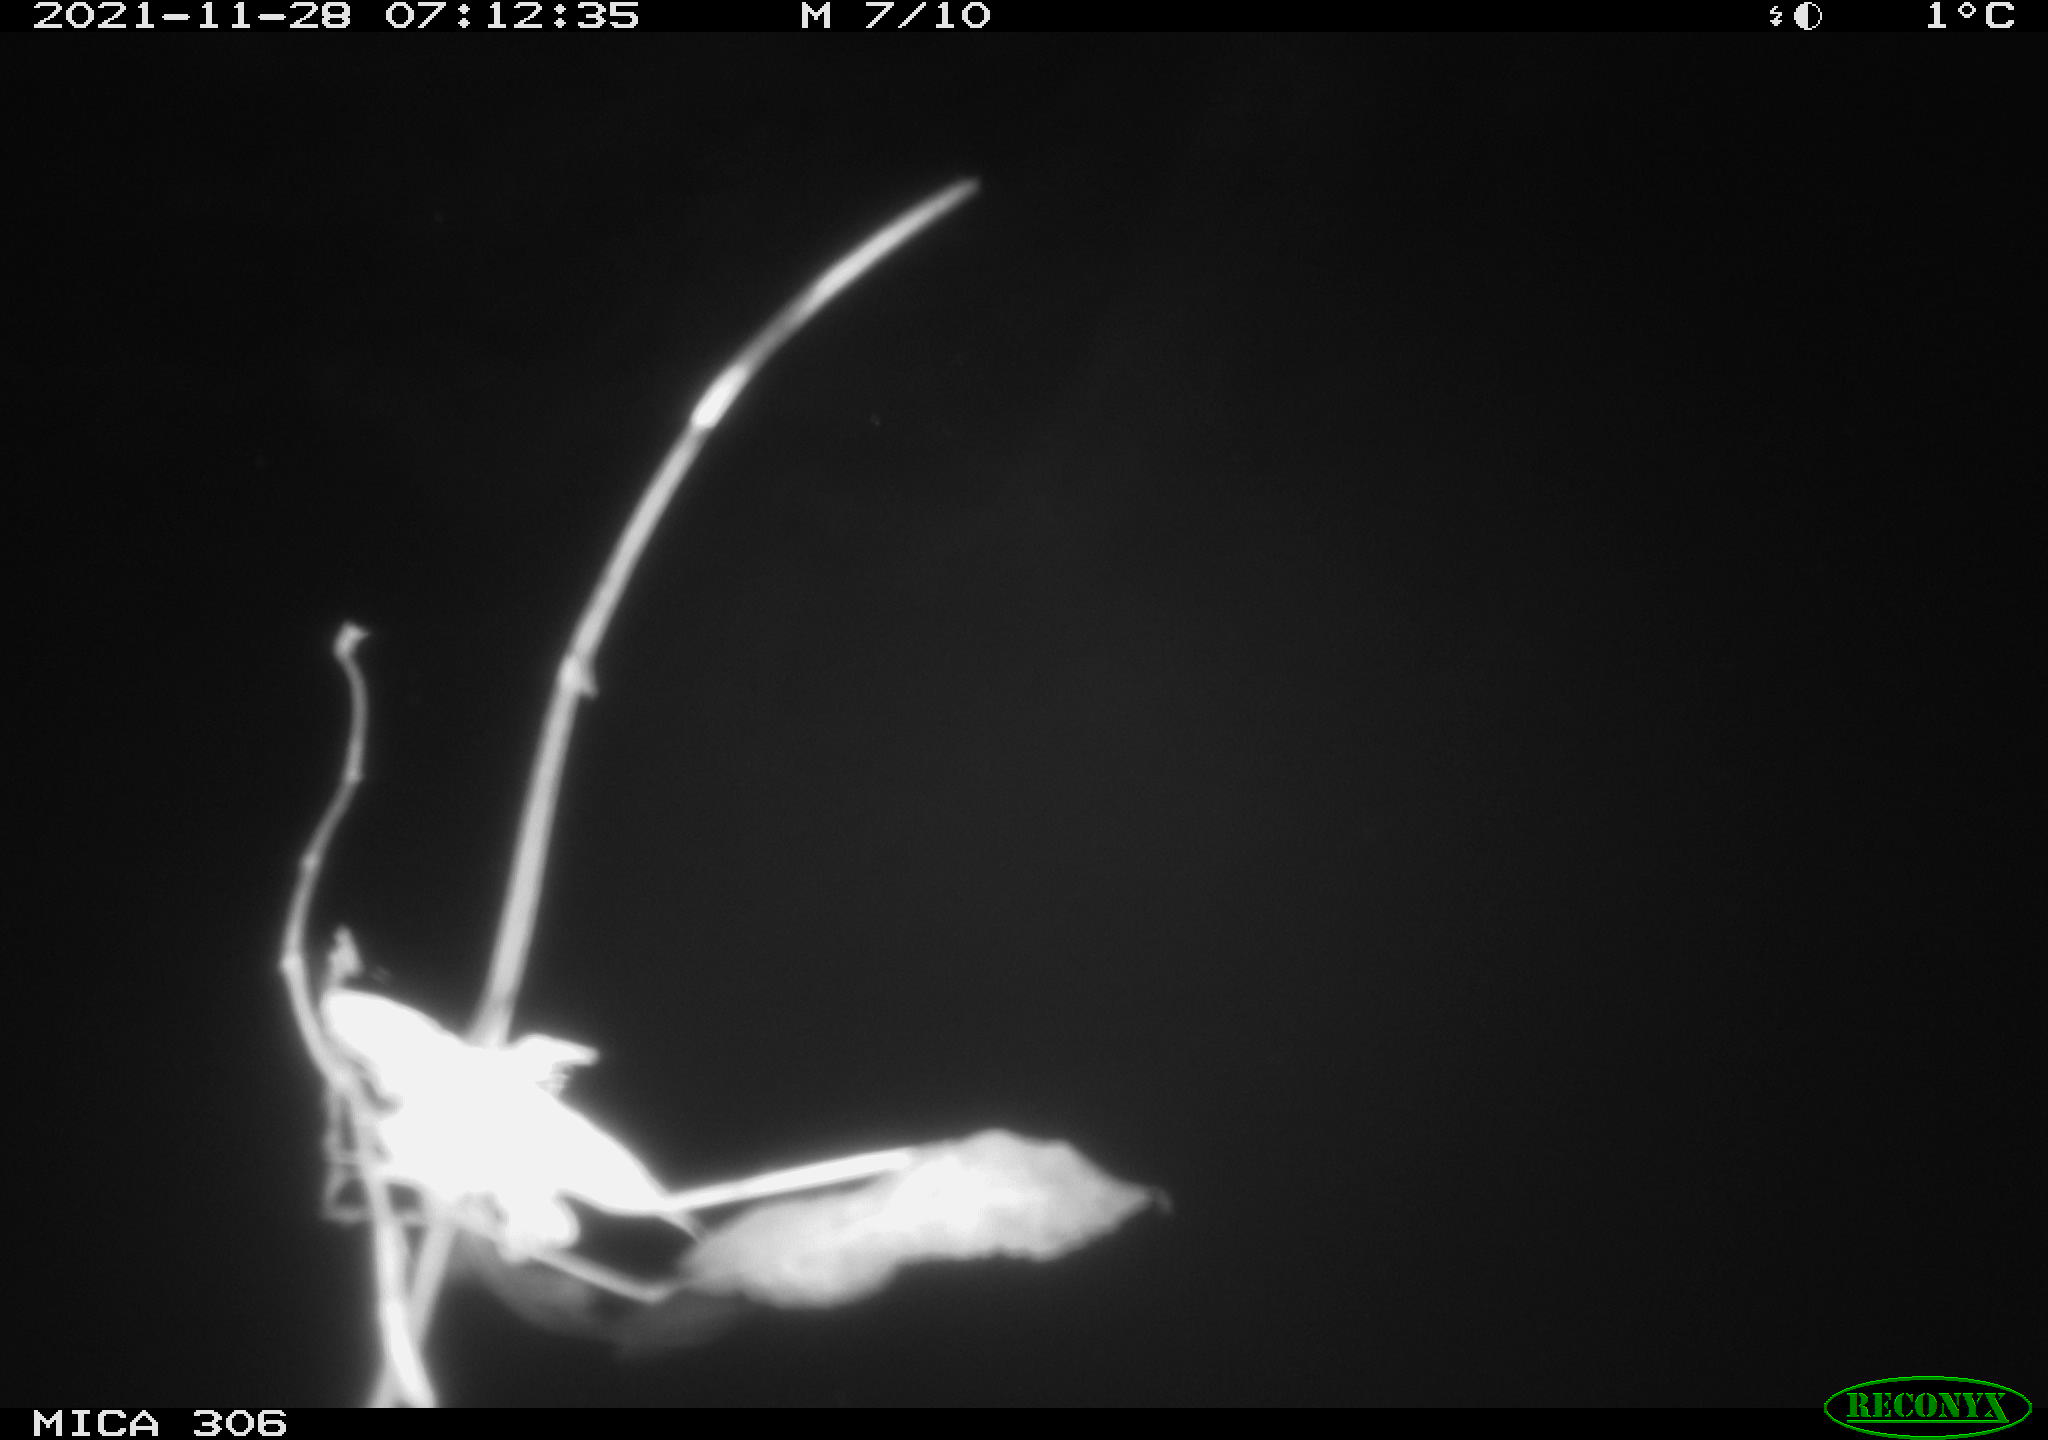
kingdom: Animalia
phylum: Chordata
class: Aves
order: Gruiformes
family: Rallidae
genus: Fulica
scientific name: Fulica atra
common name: Eurasian coot
